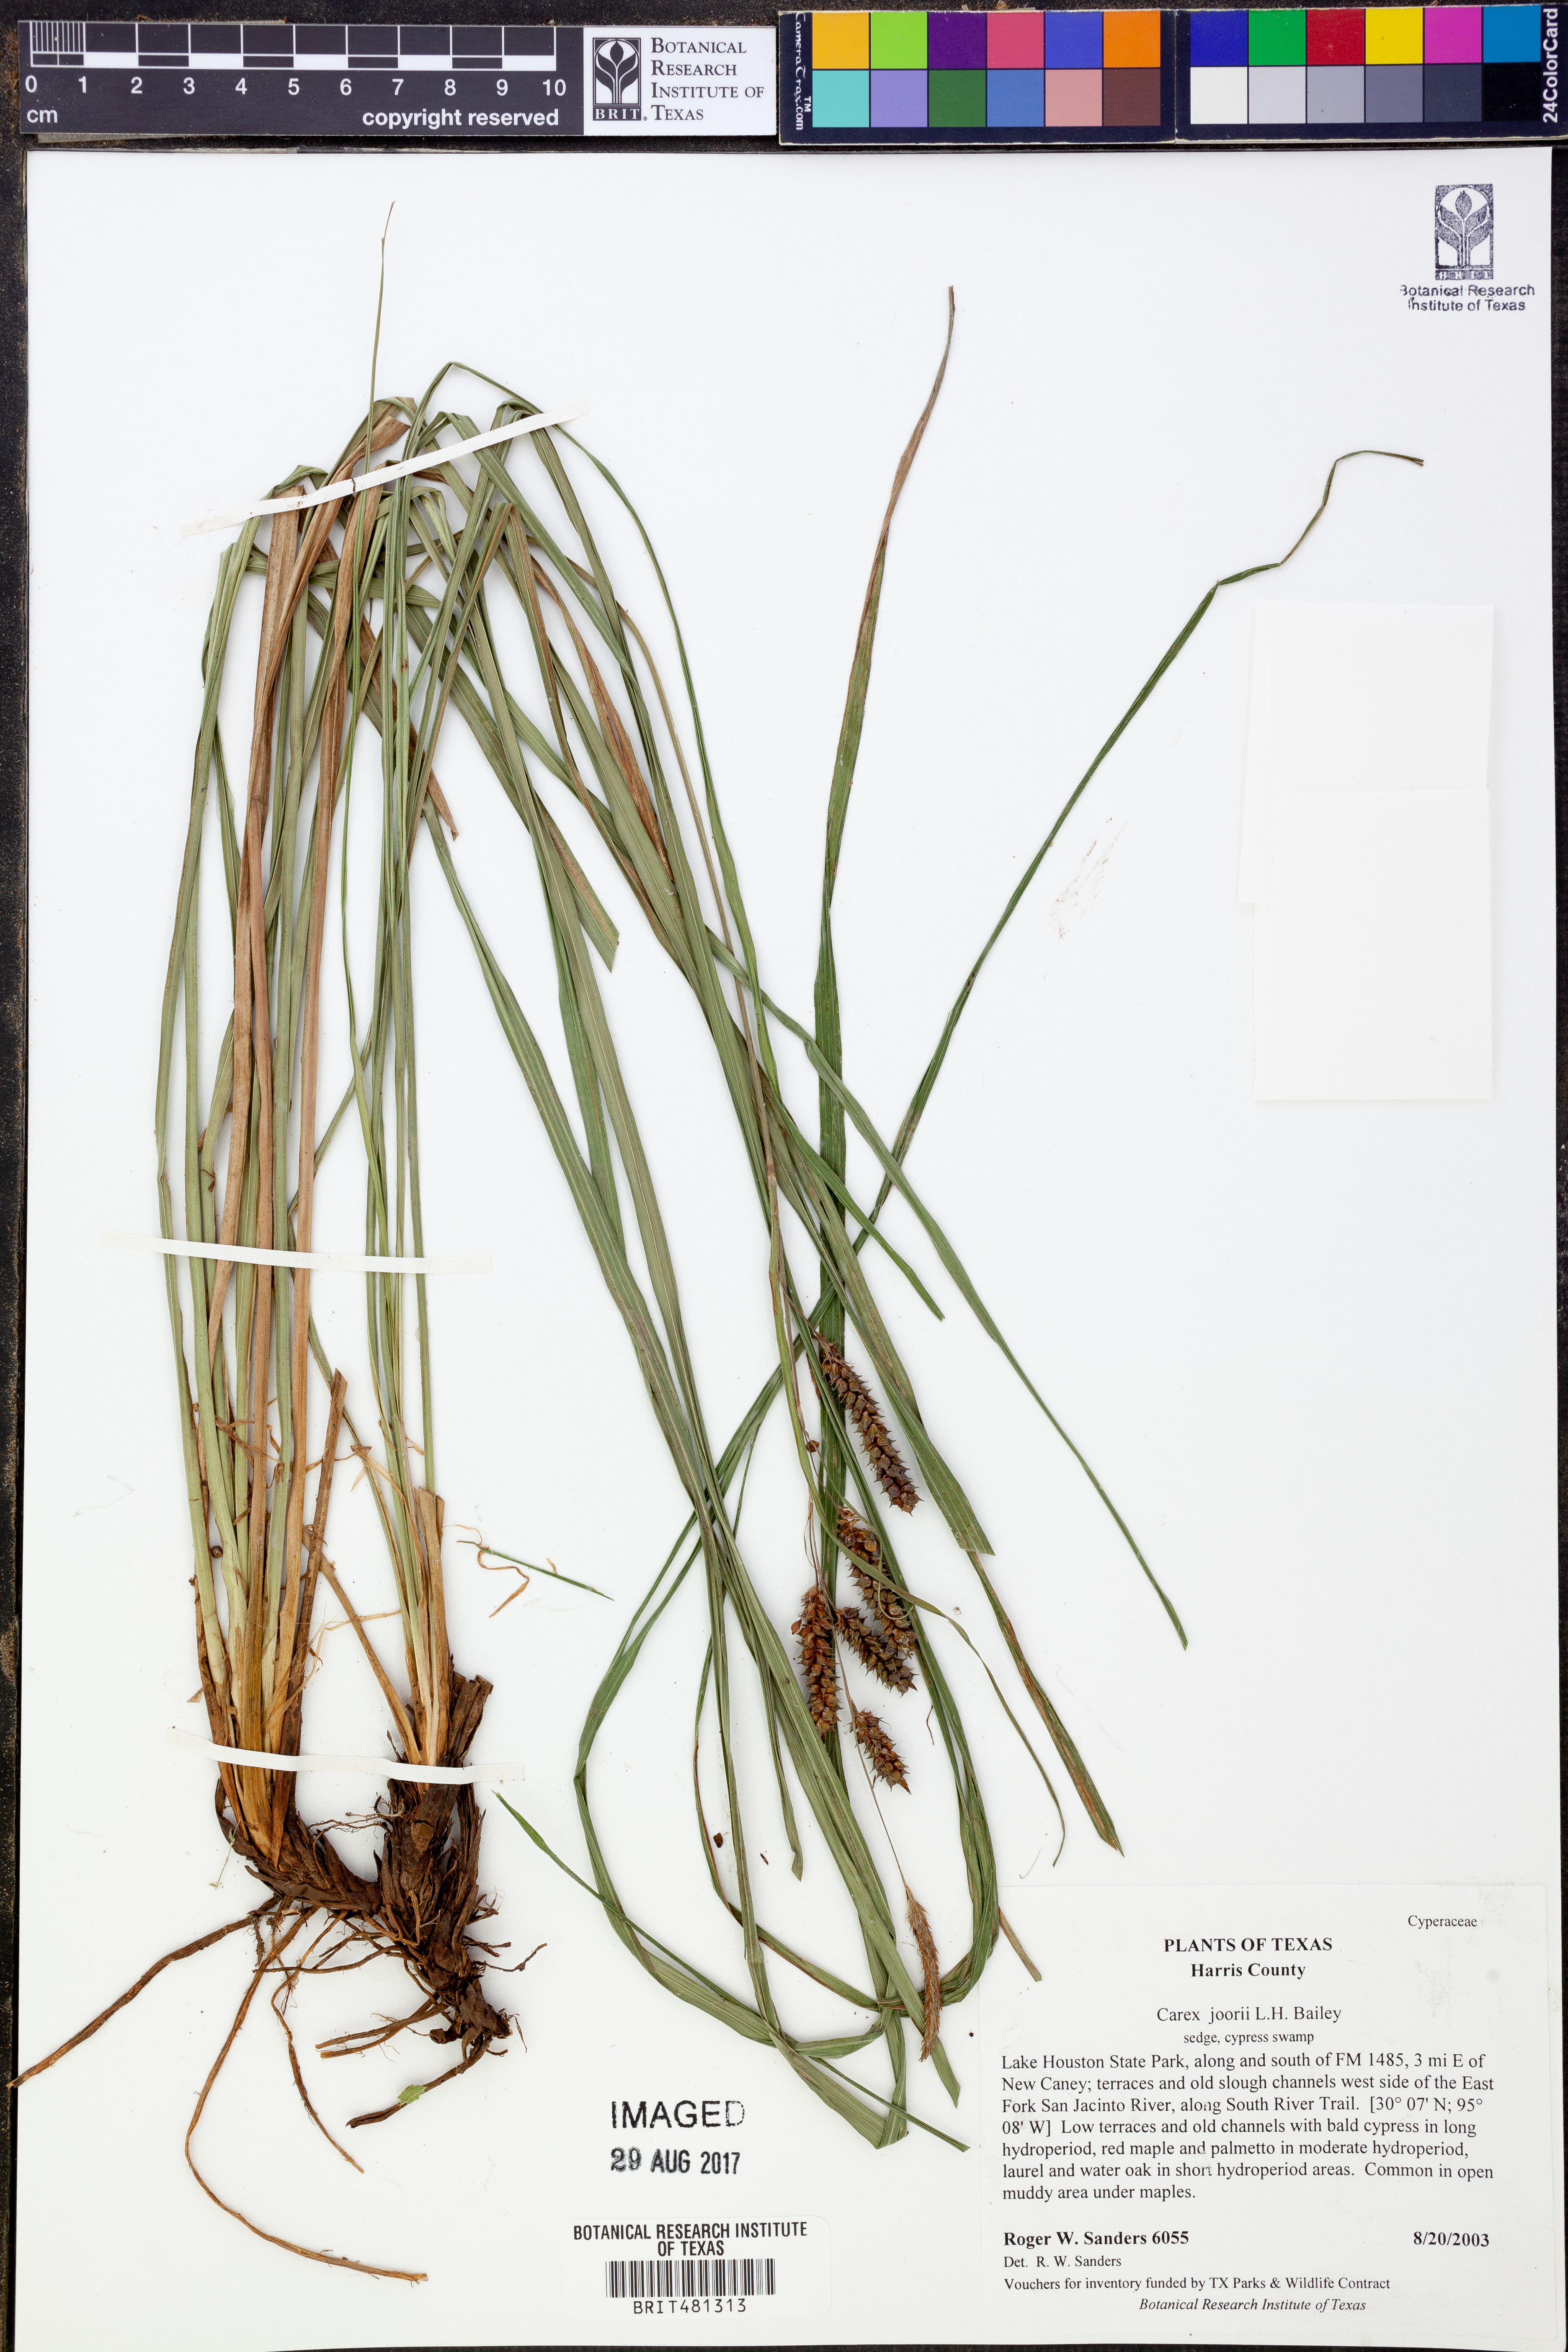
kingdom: Plantae
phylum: Tracheophyta
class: Liliopsida
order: Poales
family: Cyperaceae
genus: Carex
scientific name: Carex joorii
